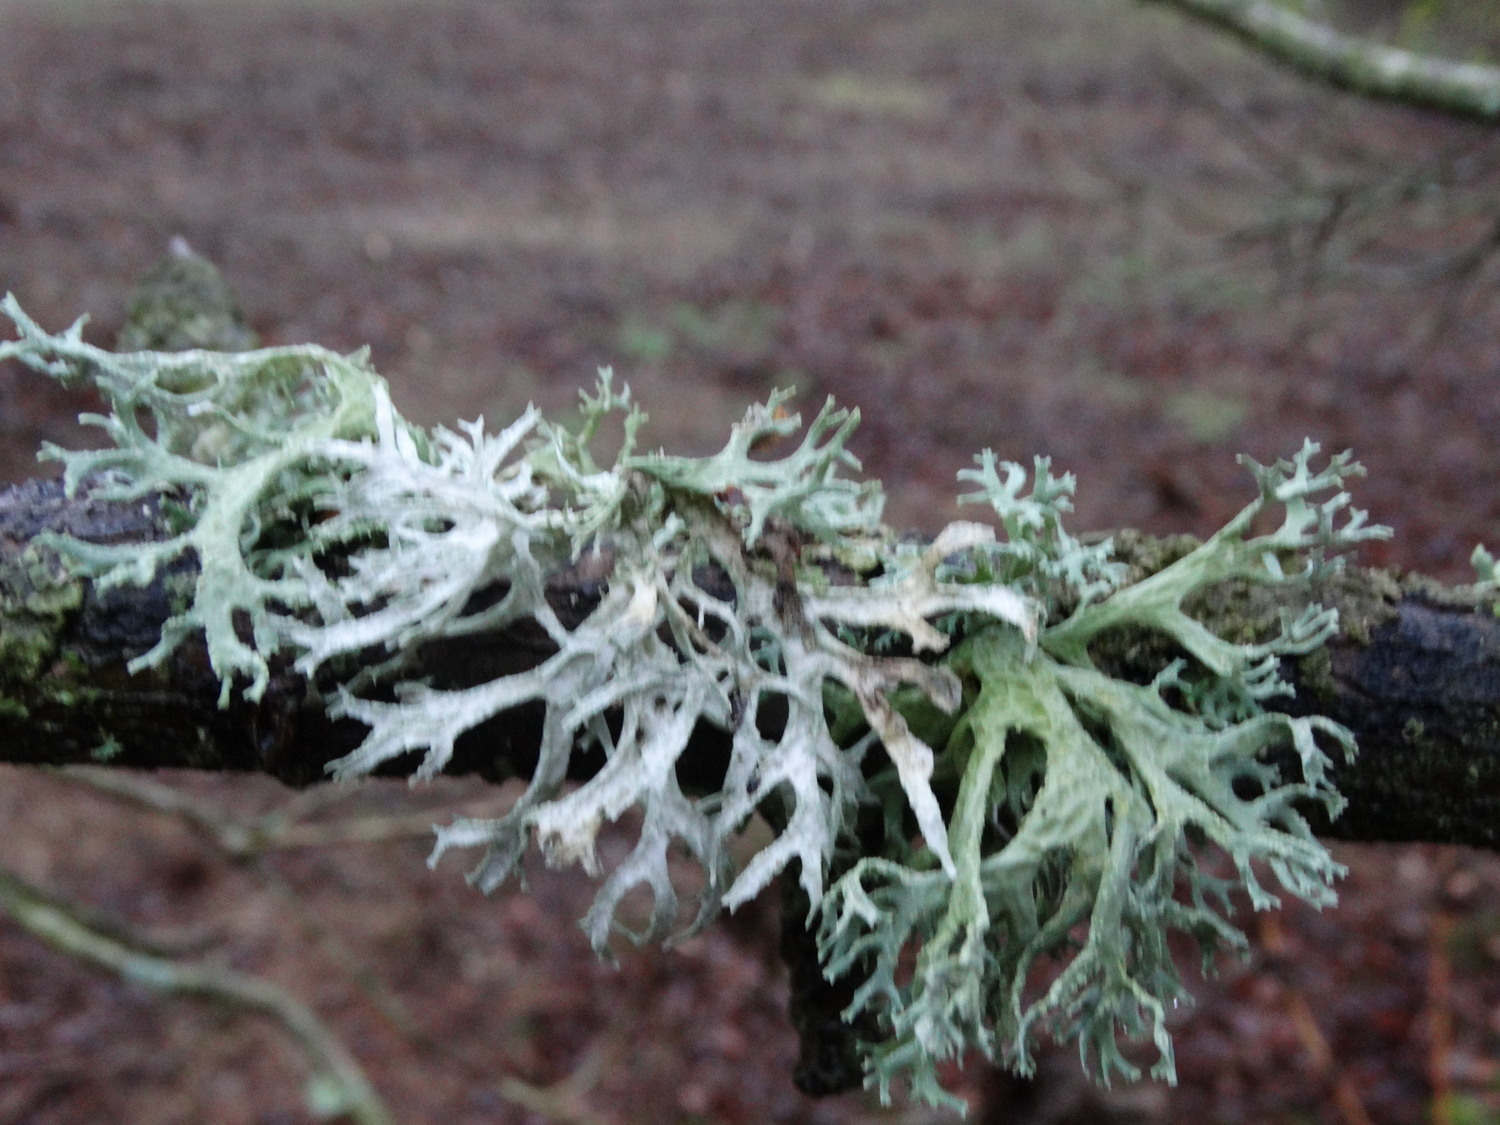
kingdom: Fungi
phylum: Ascomycota
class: Lecanoromycetes
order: Lecanorales
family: Parmeliaceae
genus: Evernia
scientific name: Evernia prunastri
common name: almindelig slåenlav
